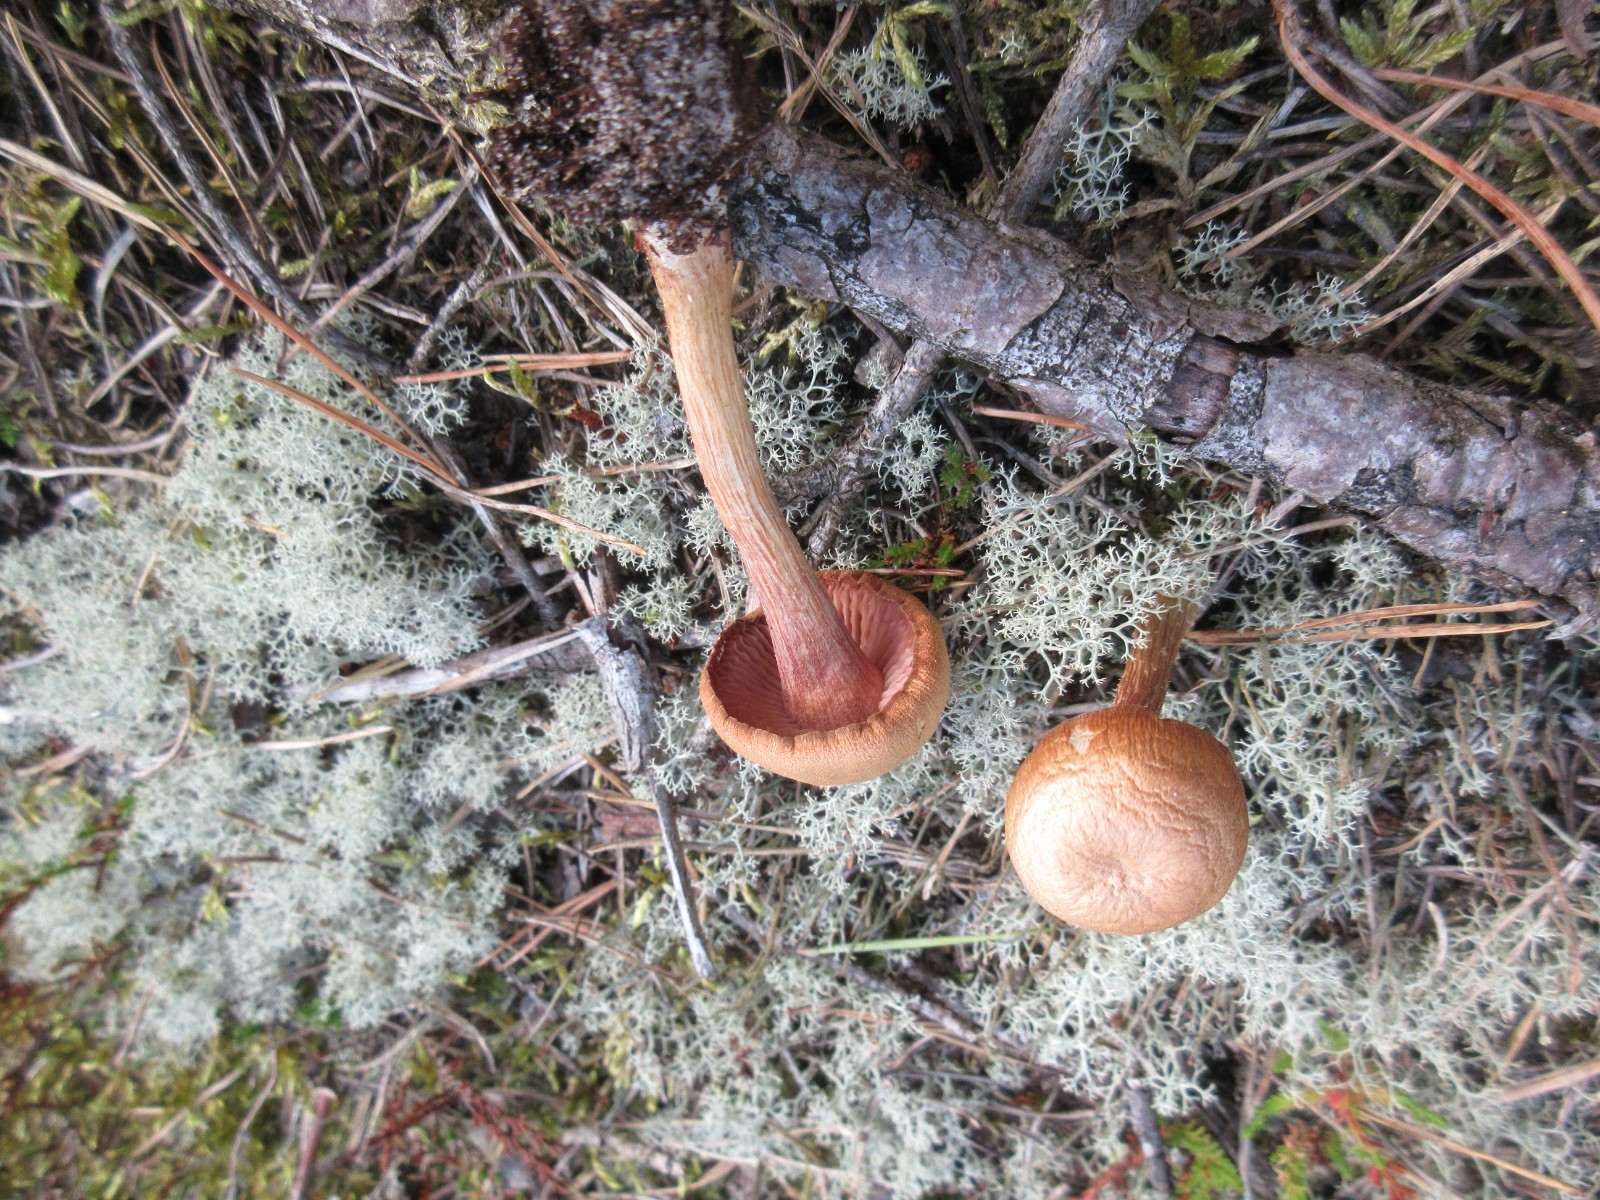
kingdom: Fungi
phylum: Basidiomycota
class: Agaricomycetes
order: Agaricales
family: Hydnangiaceae
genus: Laccaria
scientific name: Laccaria laccata
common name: rød ametysthat
